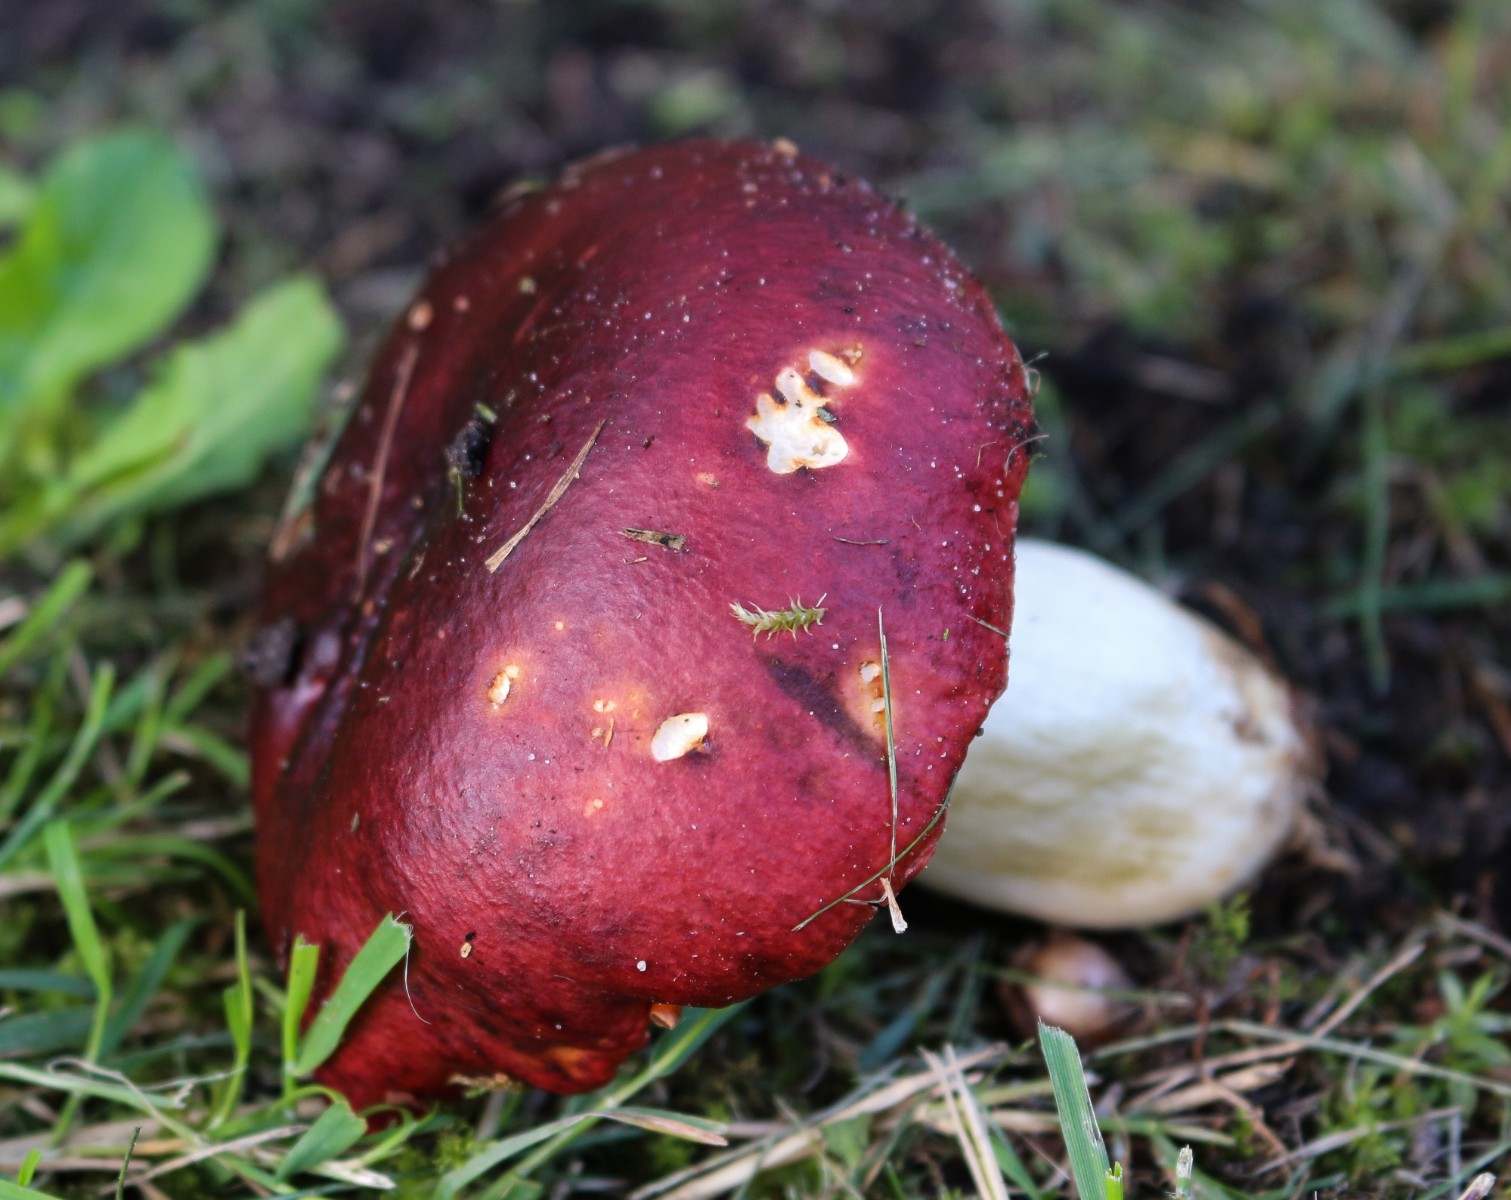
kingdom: Fungi
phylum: Basidiomycota
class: Agaricomycetes
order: Russulales
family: Russulaceae
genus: Russula
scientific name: Russula atropurpurea
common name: purpurbroget skørhat
